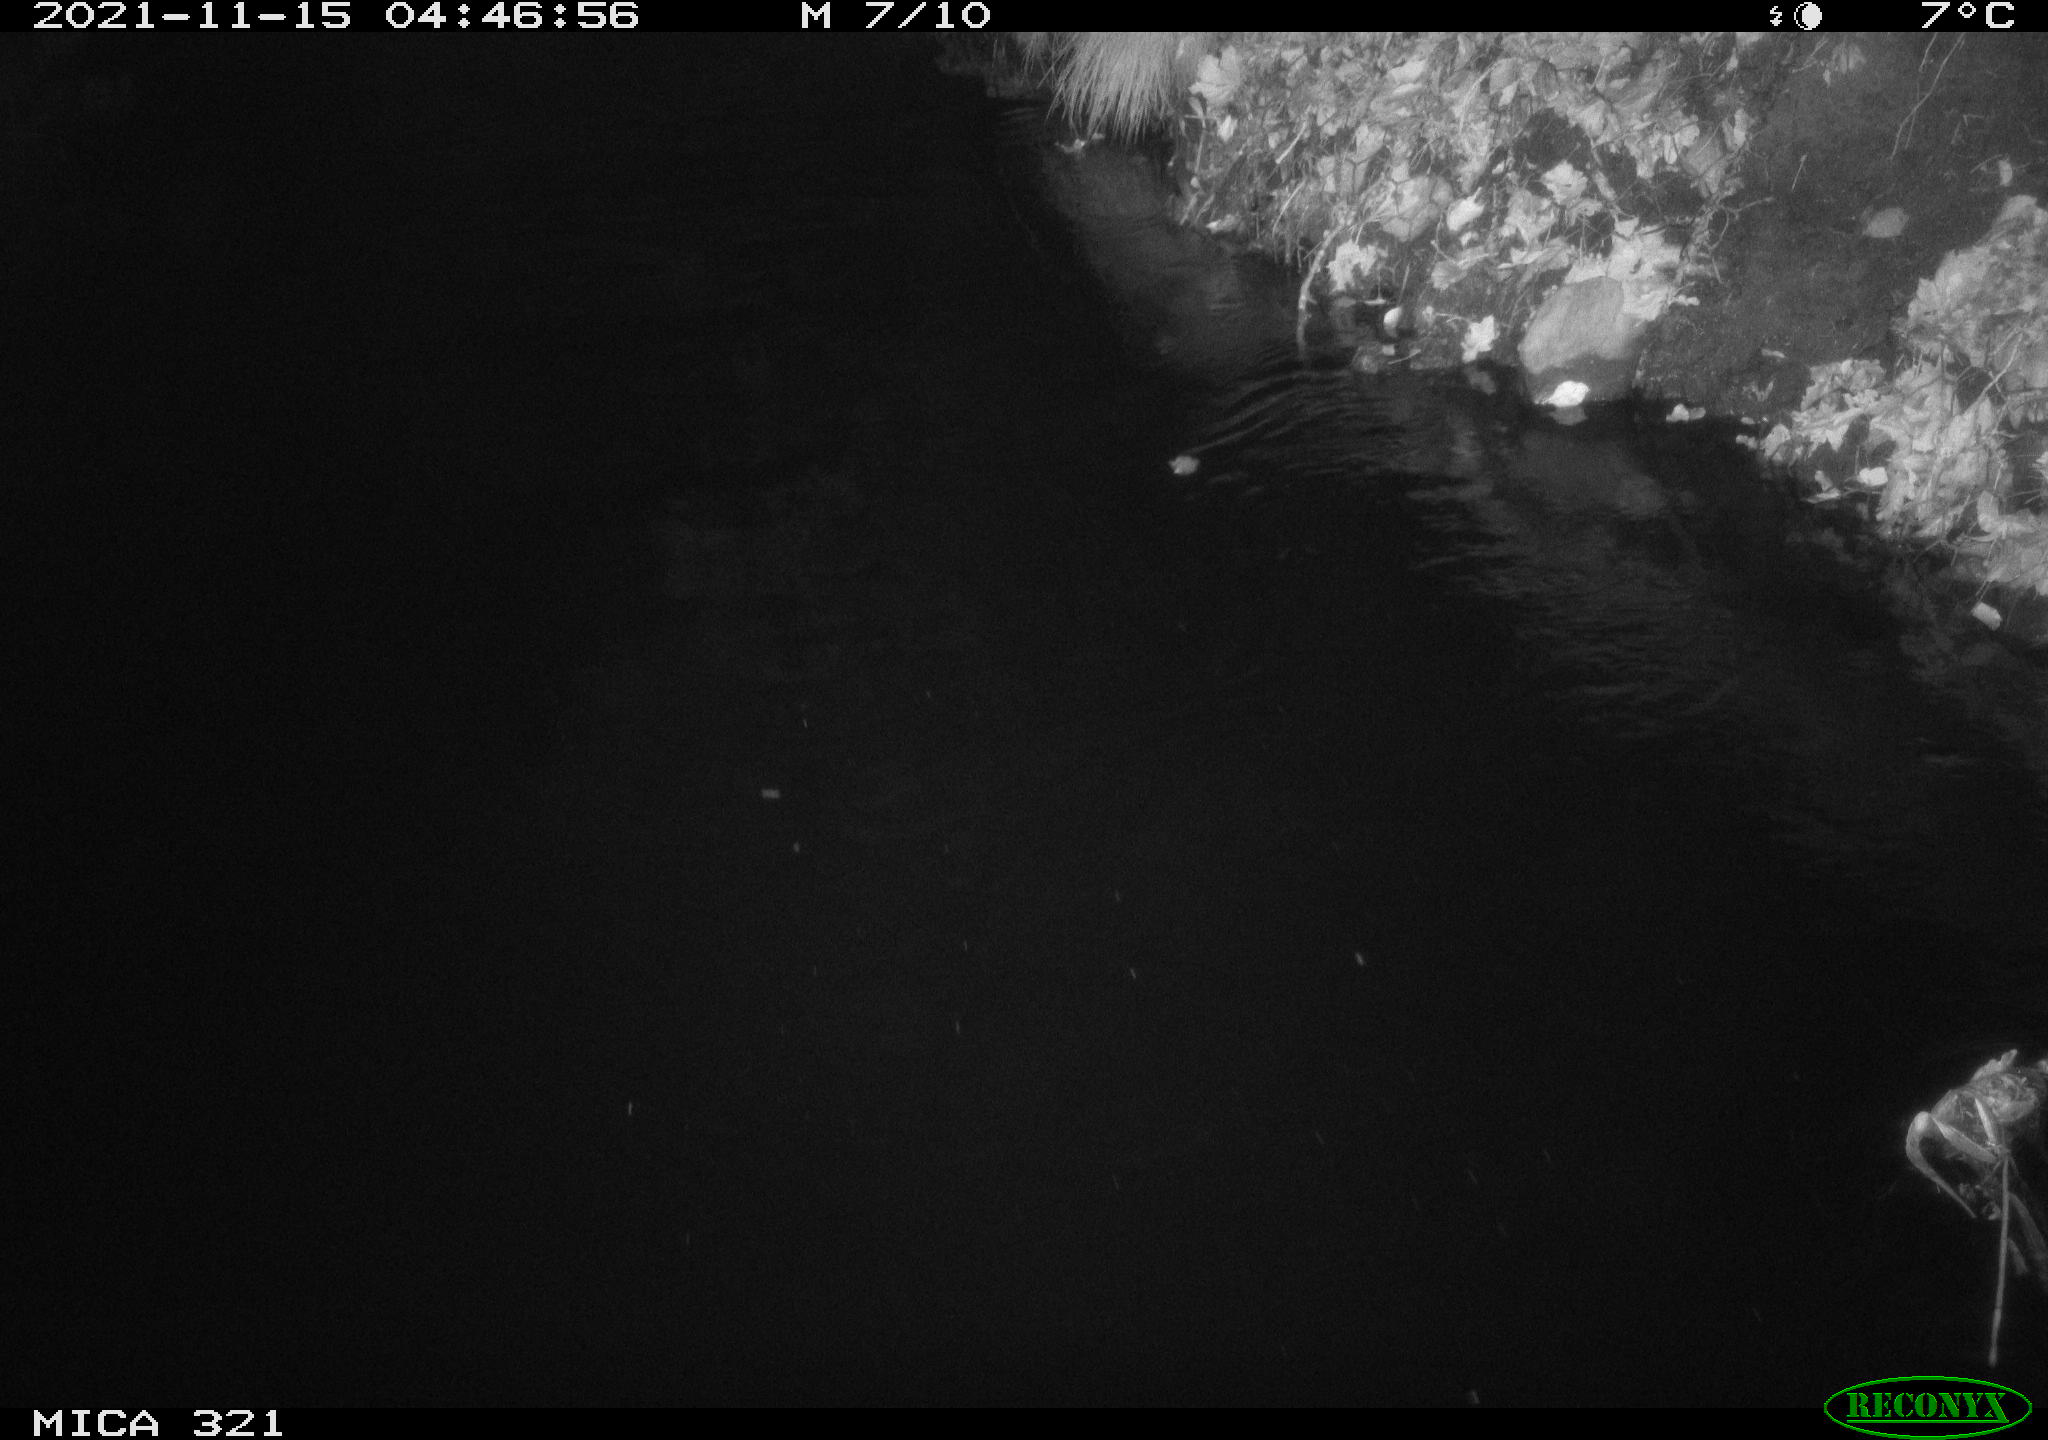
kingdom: Animalia
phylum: Chordata
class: Mammalia
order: Rodentia
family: Muridae
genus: Rattus
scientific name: Rattus norvegicus
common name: Brown rat
